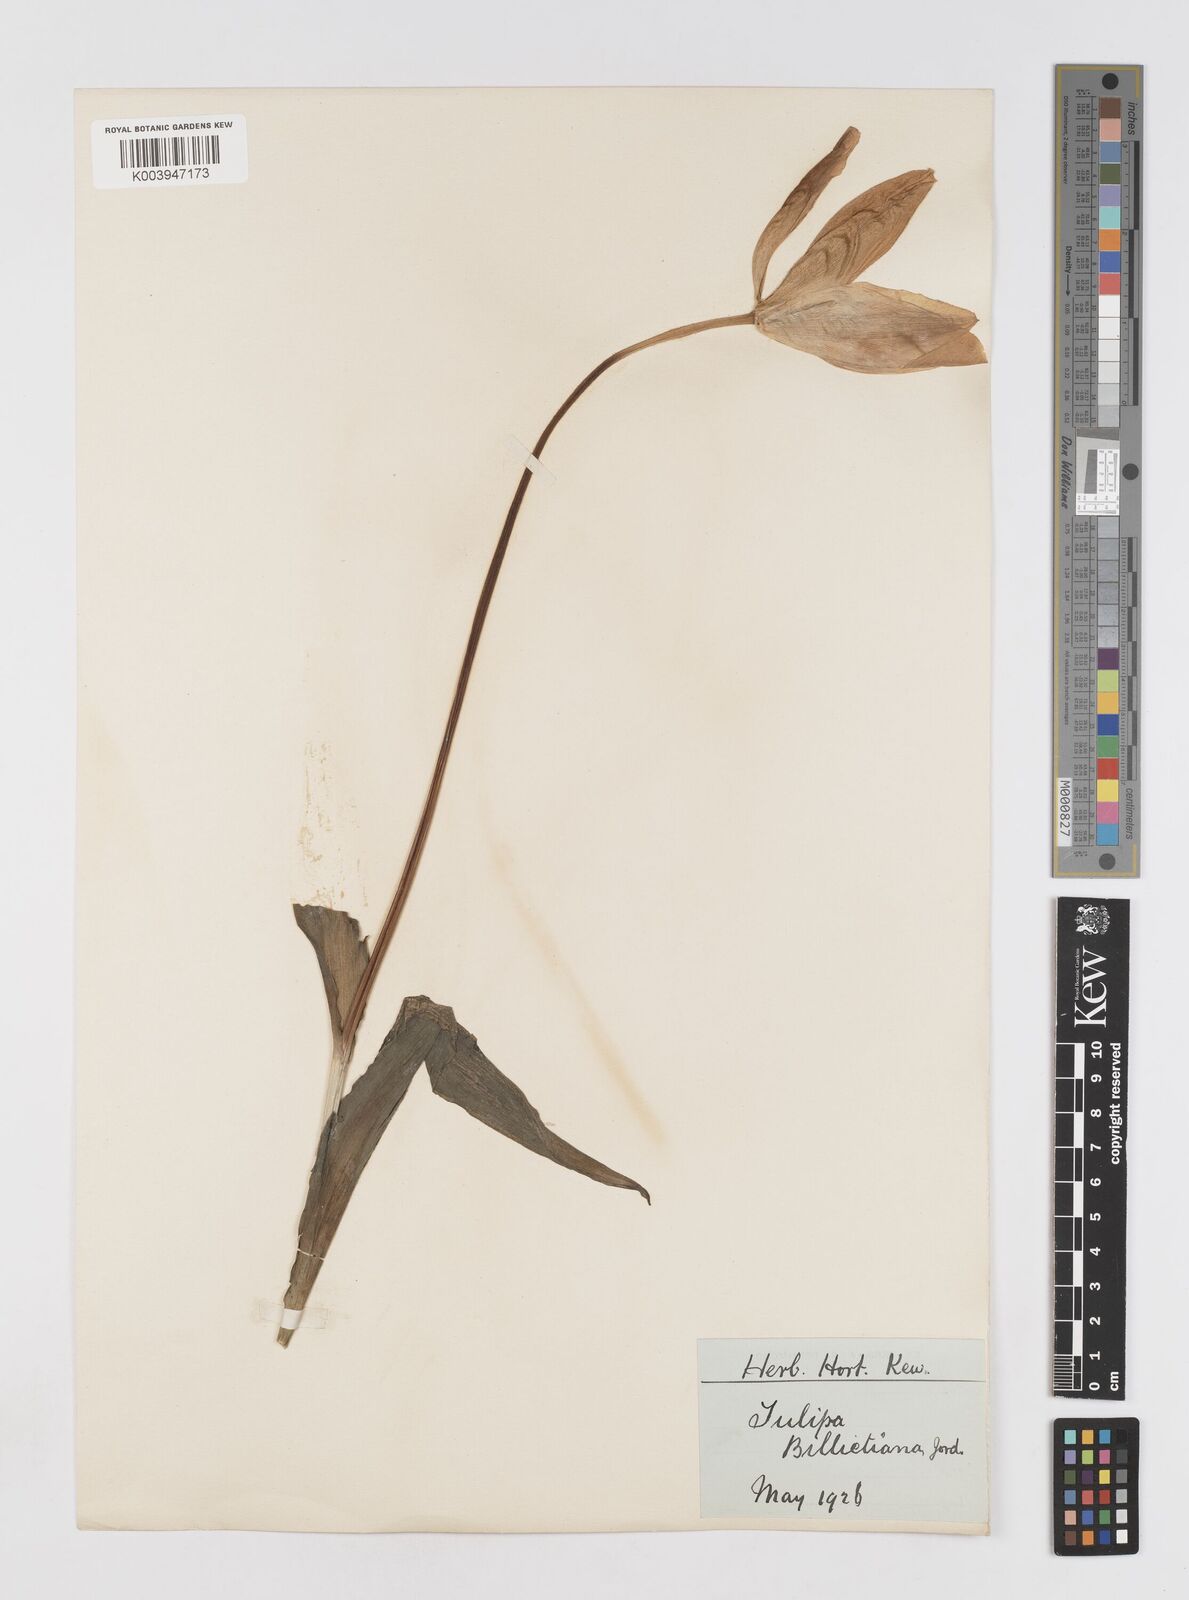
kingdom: Plantae
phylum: Tracheophyta
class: Liliopsida
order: Liliales
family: Liliaceae
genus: Tulipa
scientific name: Tulipa gesneriana
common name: Garden tulip
